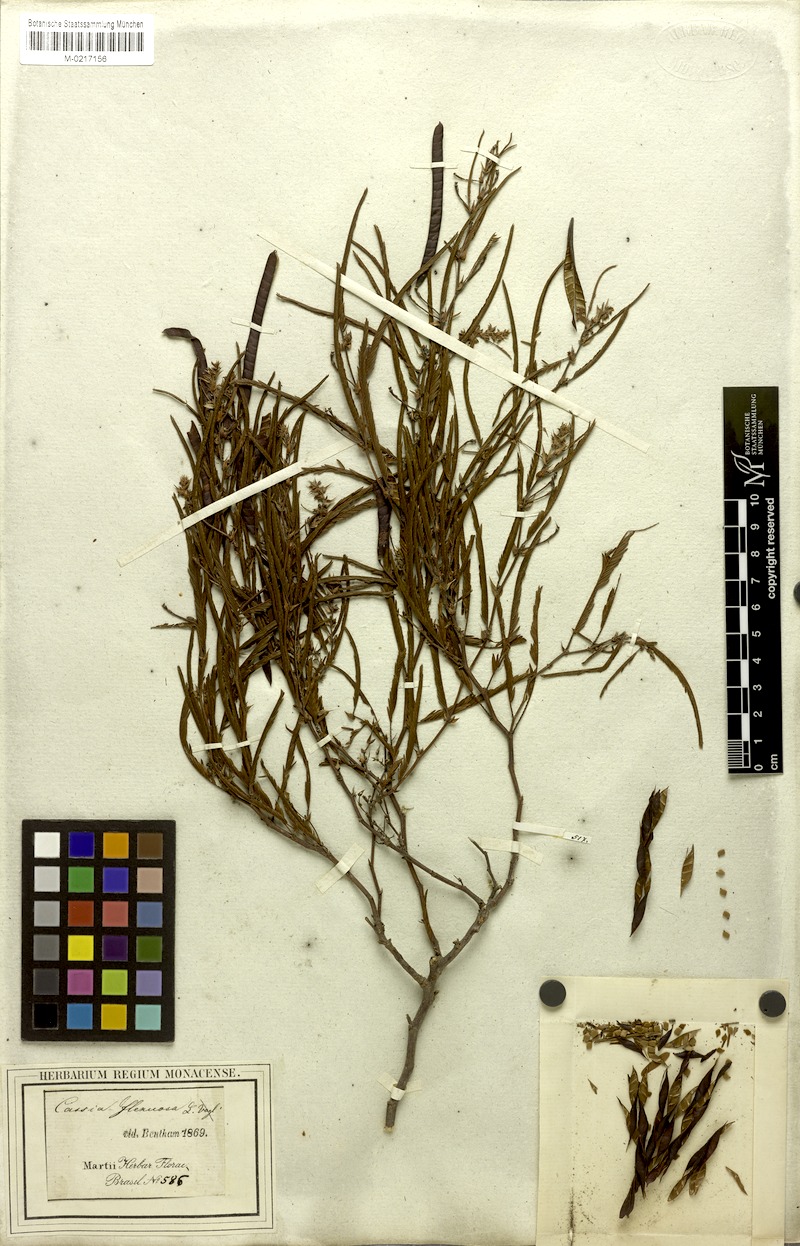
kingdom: Plantae
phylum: Tracheophyta
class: Magnoliopsida
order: Fabales
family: Fabaceae
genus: Chamaecrista
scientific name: Chamaecrista flexuosa
